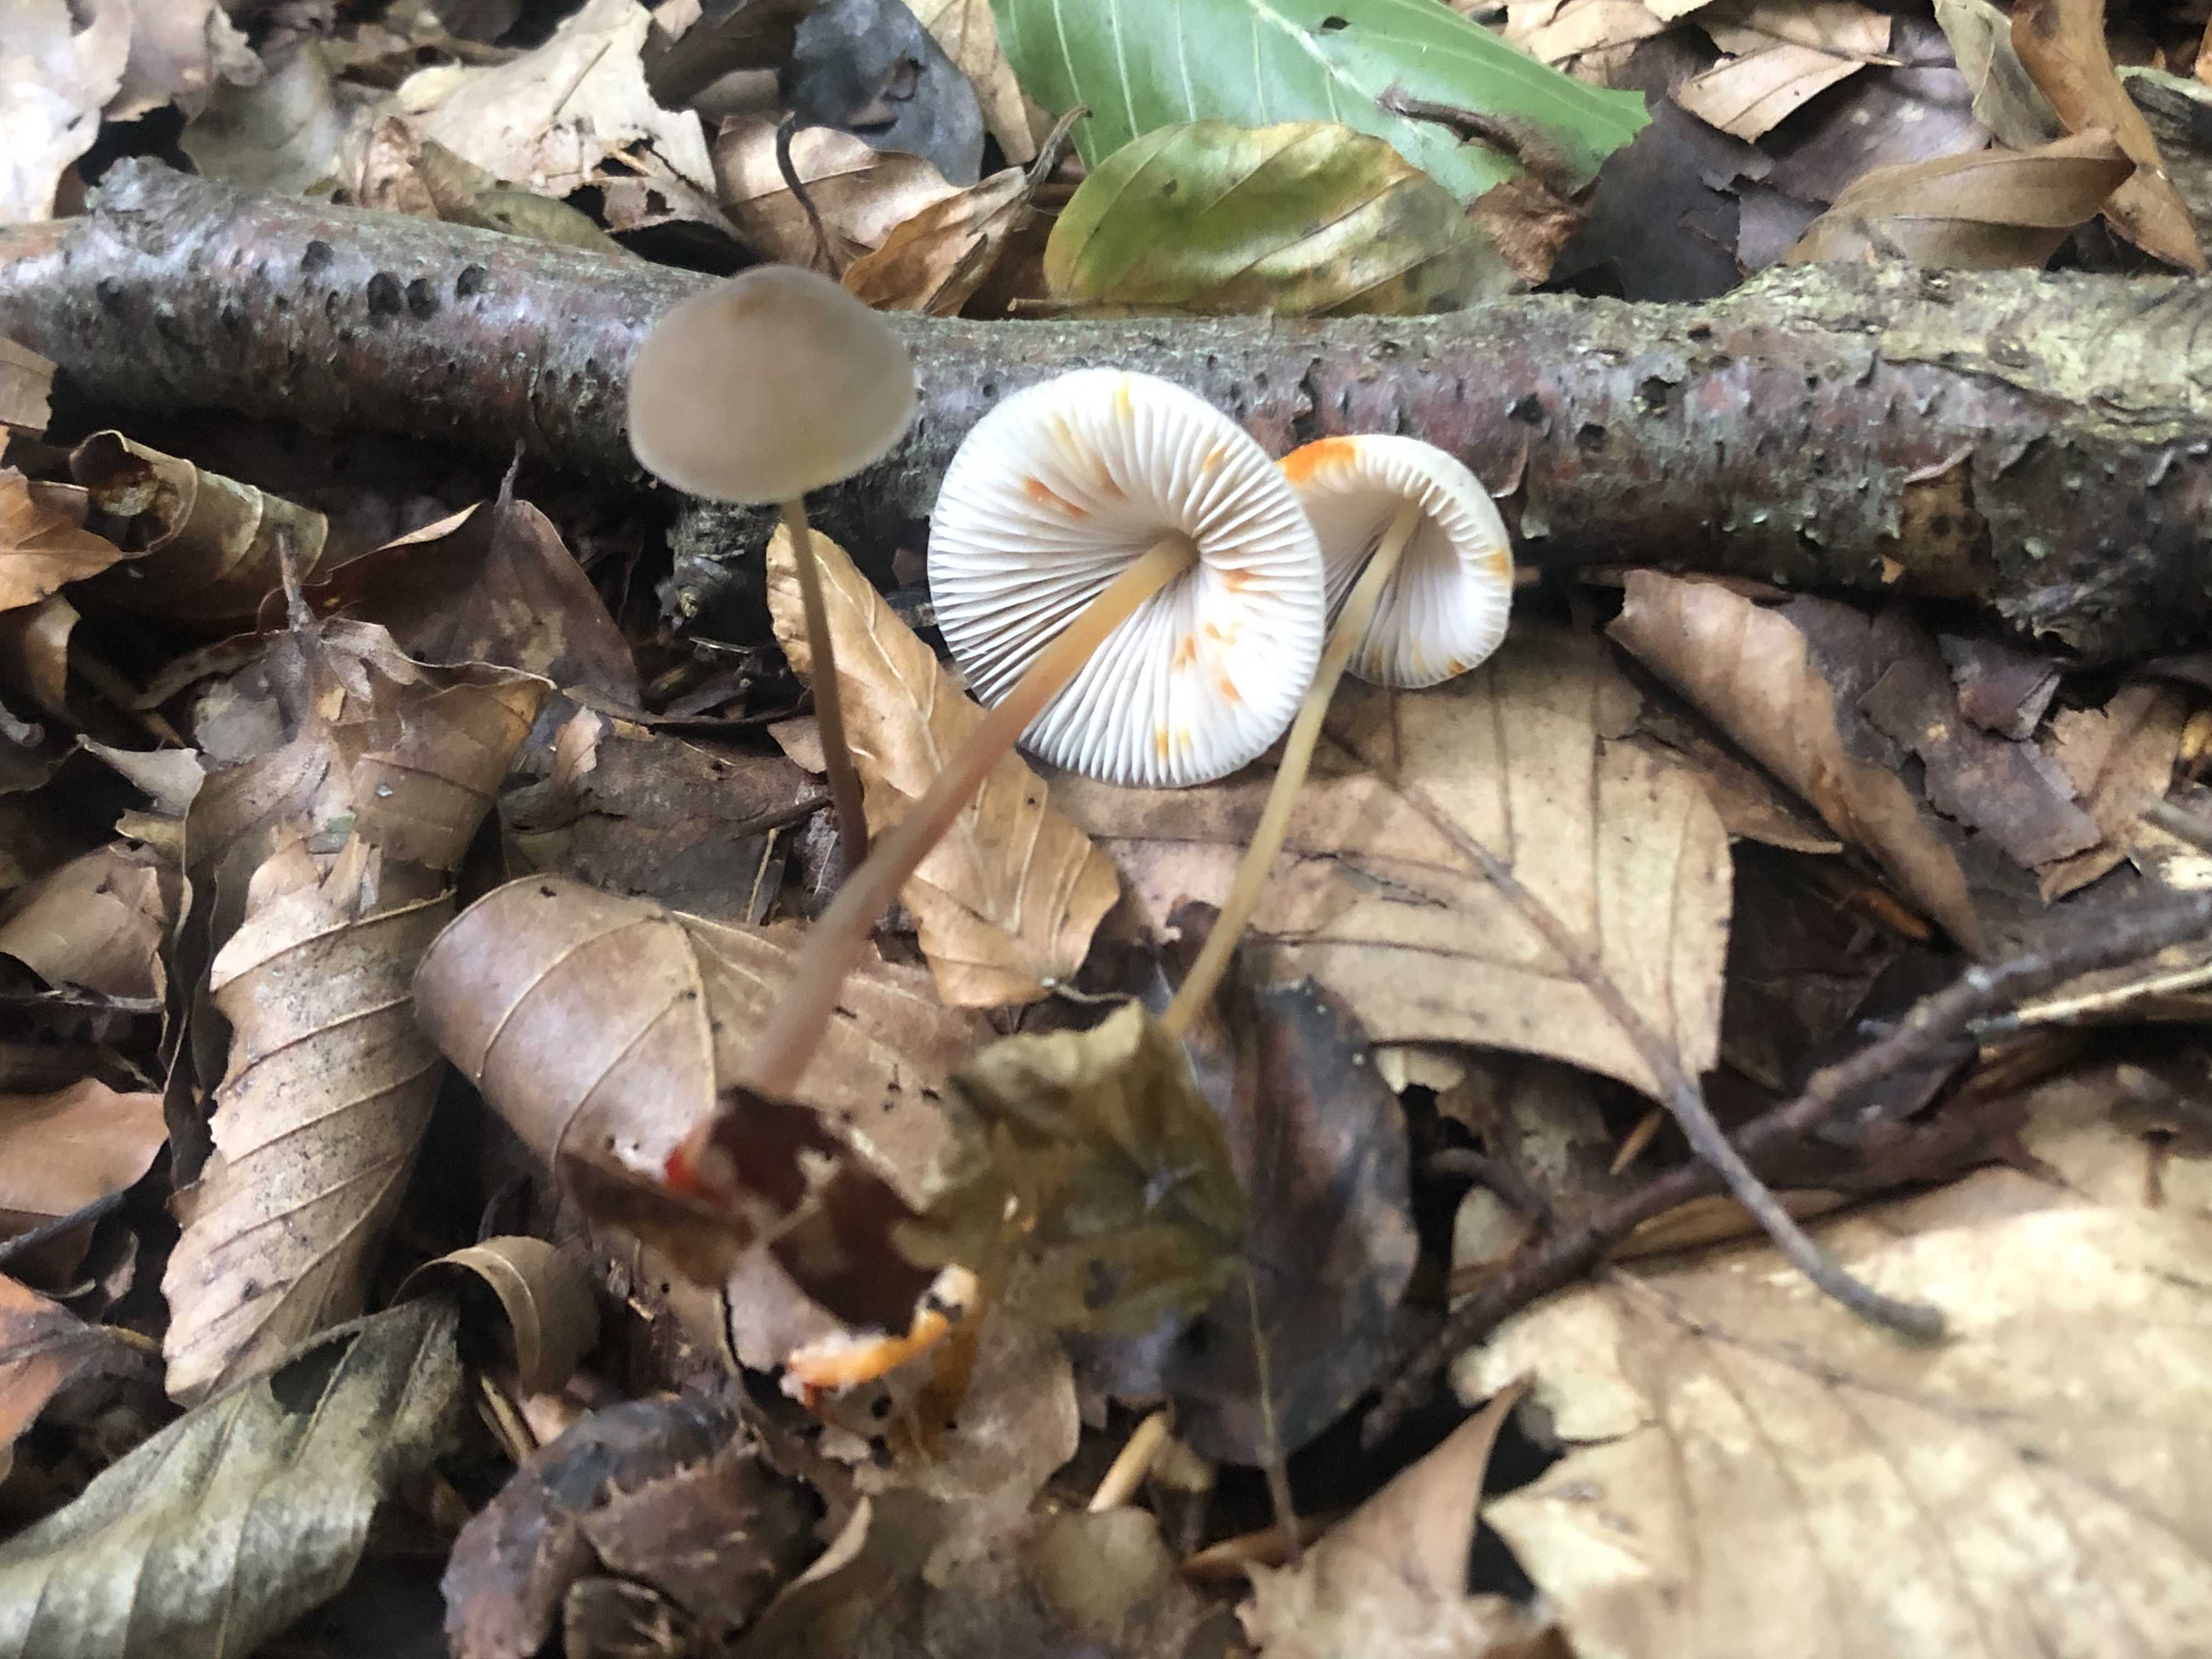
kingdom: Fungi
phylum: Basidiomycota
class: Agaricomycetes
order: Agaricales
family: Mycenaceae
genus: Mycena
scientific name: Mycena crocata
